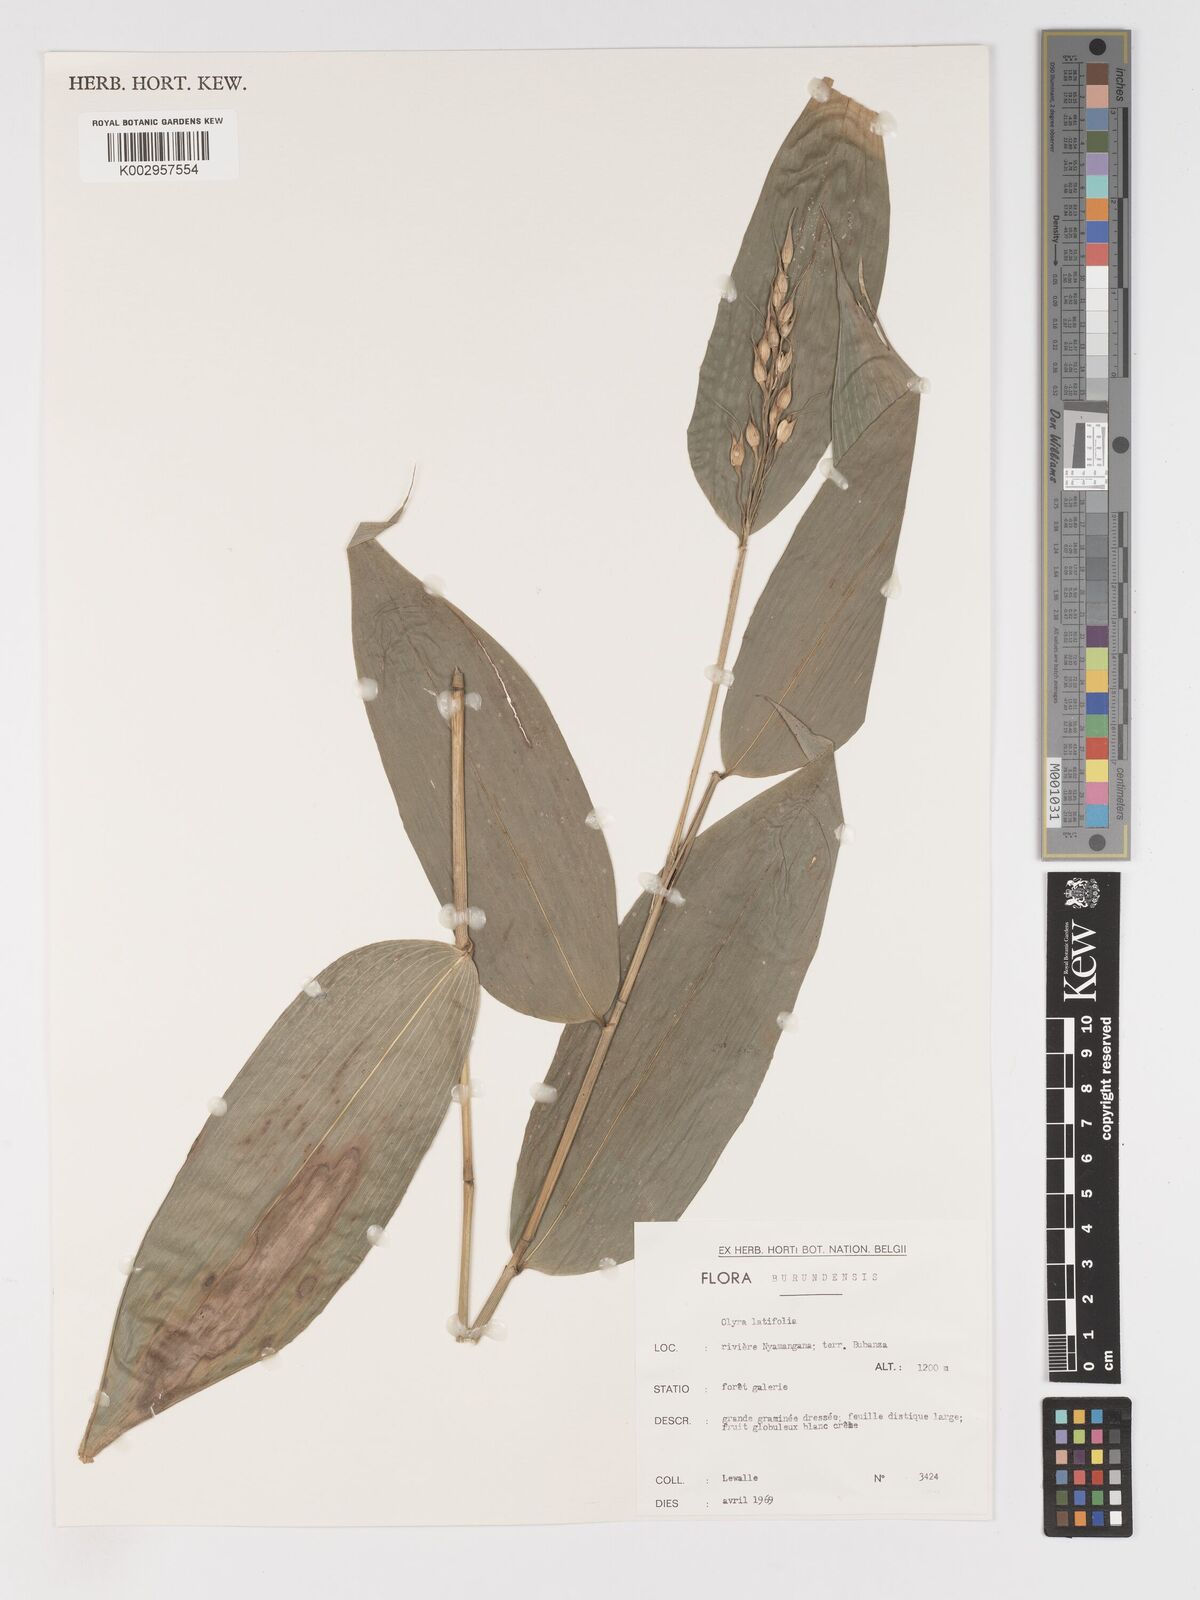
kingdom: Plantae
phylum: Tracheophyta
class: Liliopsida
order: Poales
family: Poaceae
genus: Olyra
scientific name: Olyra latifolia
